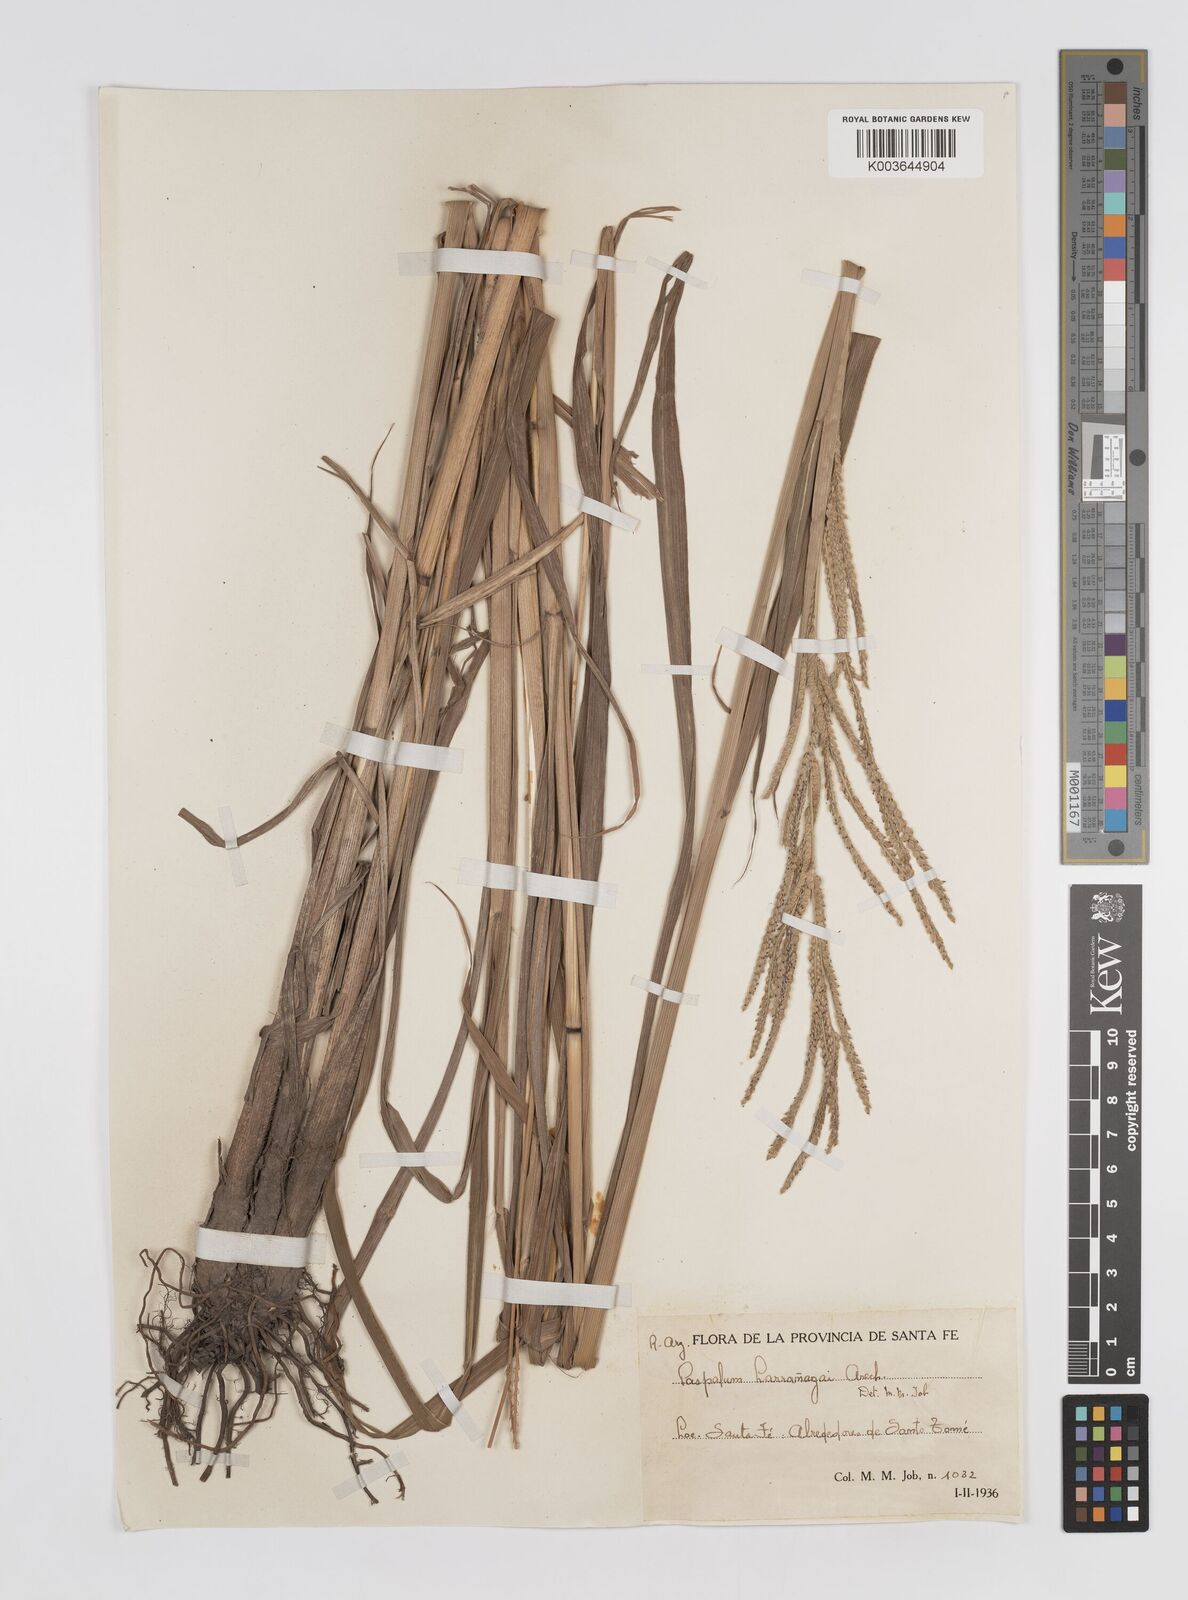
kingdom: Plantae
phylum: Tracheophyta
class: Liliopsida
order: Poales
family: Poaceae
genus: Paspalum
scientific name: Paspalum urvillei
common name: Vasey's grass
